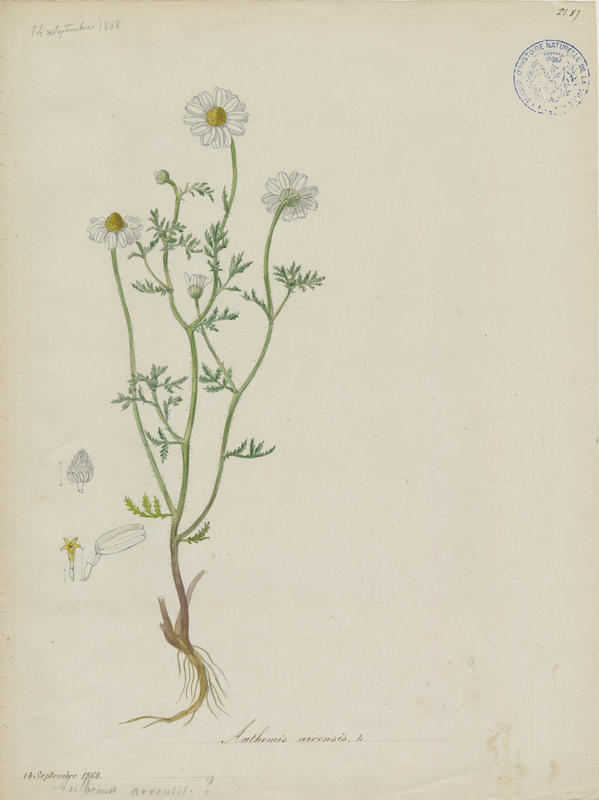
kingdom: Plantae
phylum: Tracheophyta
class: Magnoliopsida
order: Asterales
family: Asteraceae
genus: Anthemis
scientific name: Anthemis arvensis
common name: Corn chamomile
